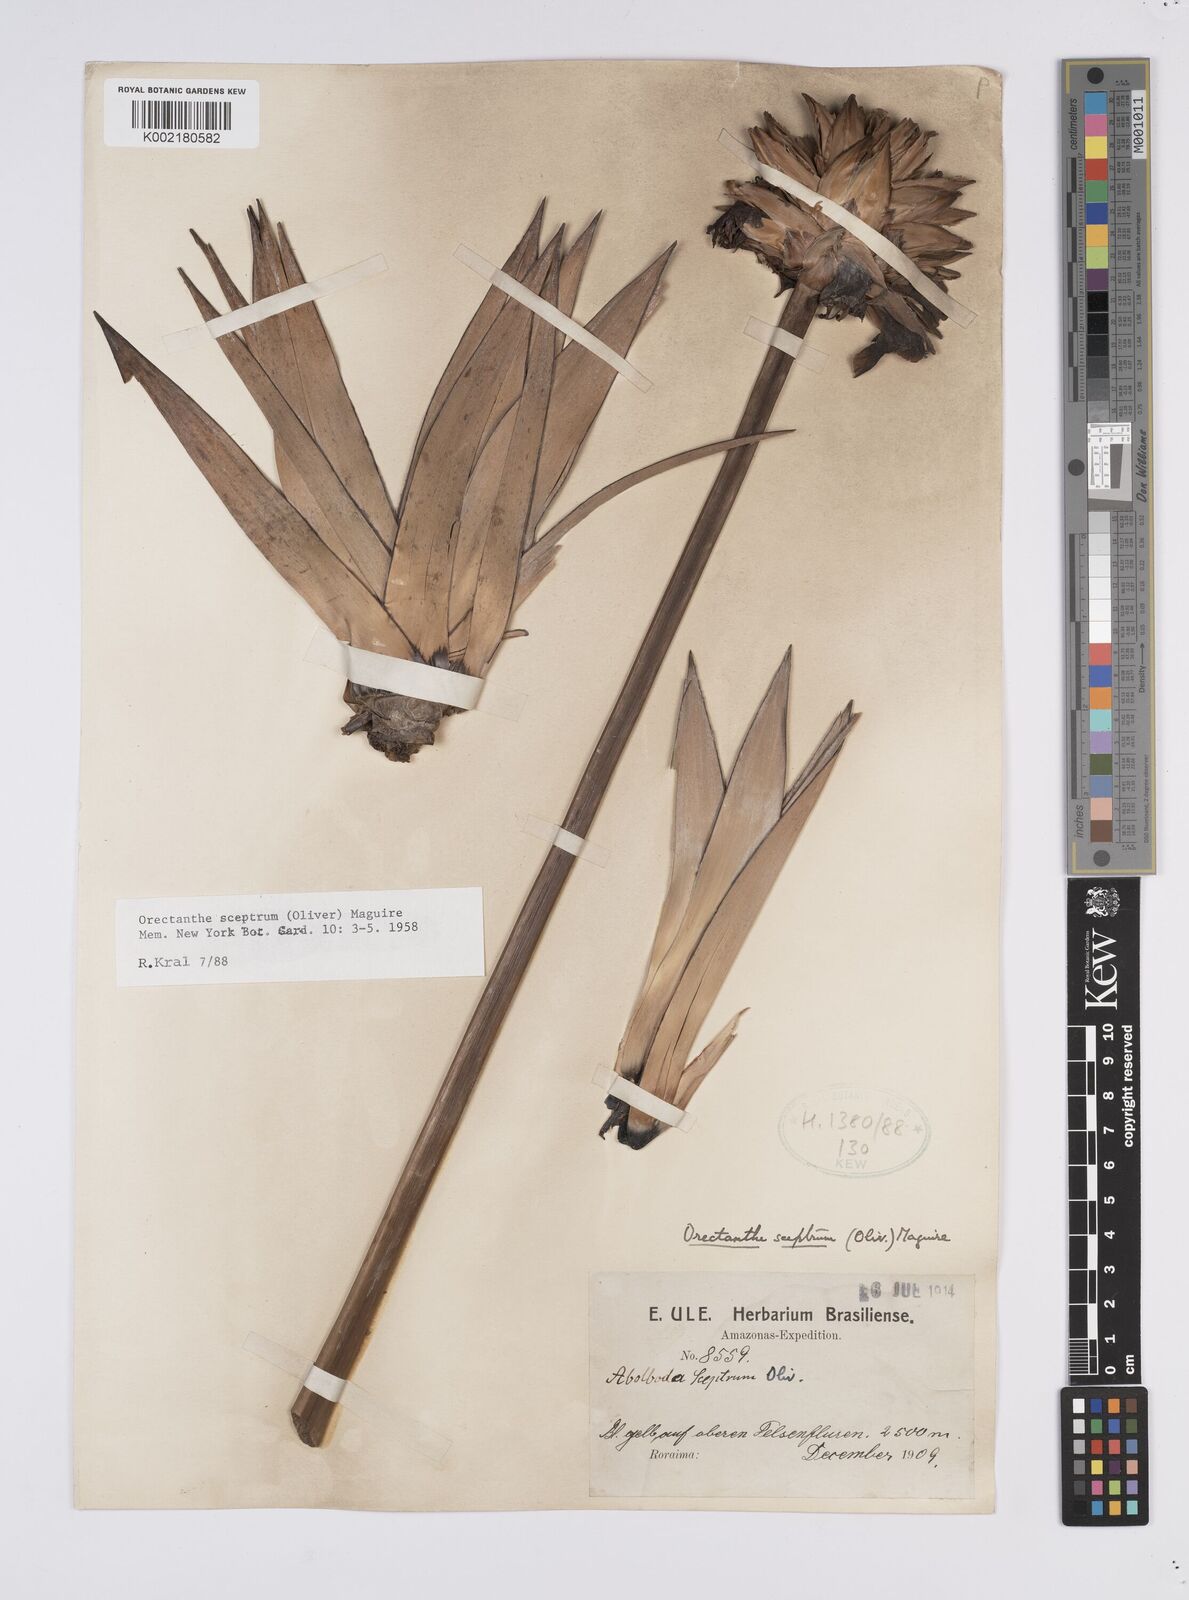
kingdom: Plantae
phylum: Tracheophyta
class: Liliopsida
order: Poales
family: Xyridaceae
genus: Orectanthe
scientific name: Orectanthe sceptrum
